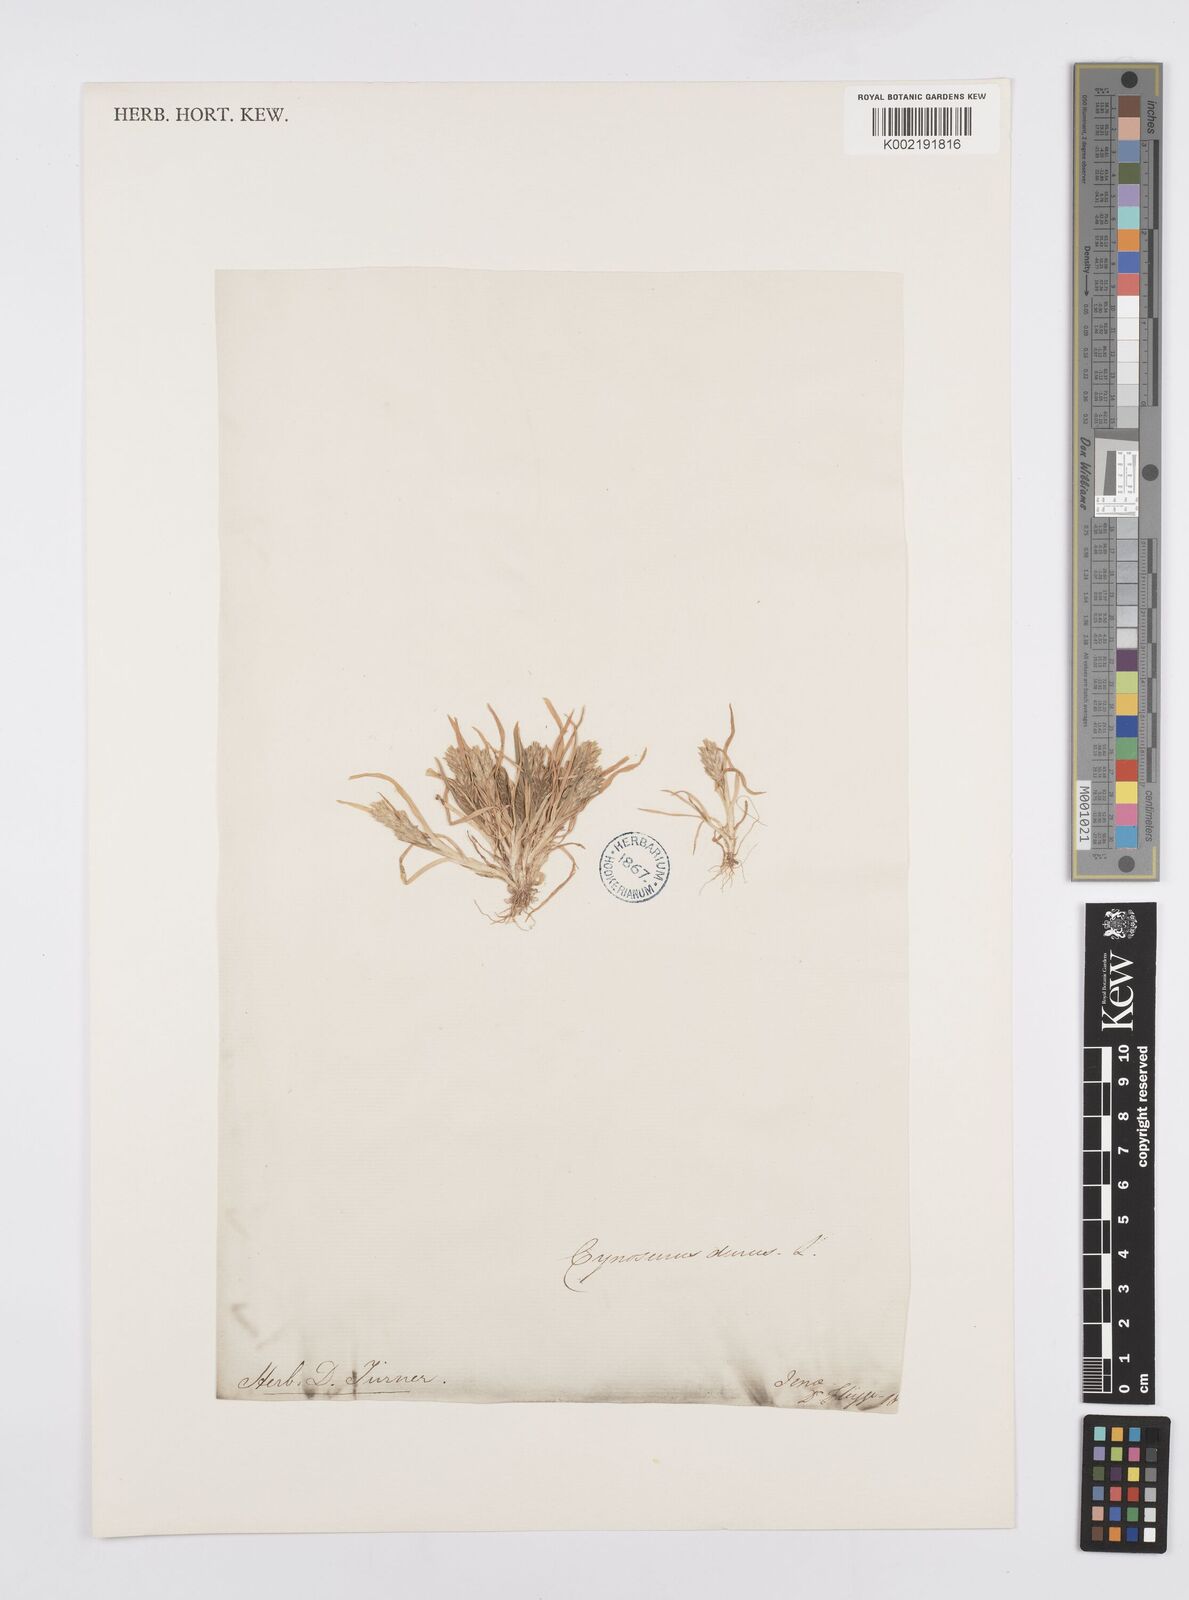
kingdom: Plantae
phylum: Tracheophyta
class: Liliopsida
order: Poales
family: Poaceae
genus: Sclerochloa
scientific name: Sclerochloa dura
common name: Common hardgrass
